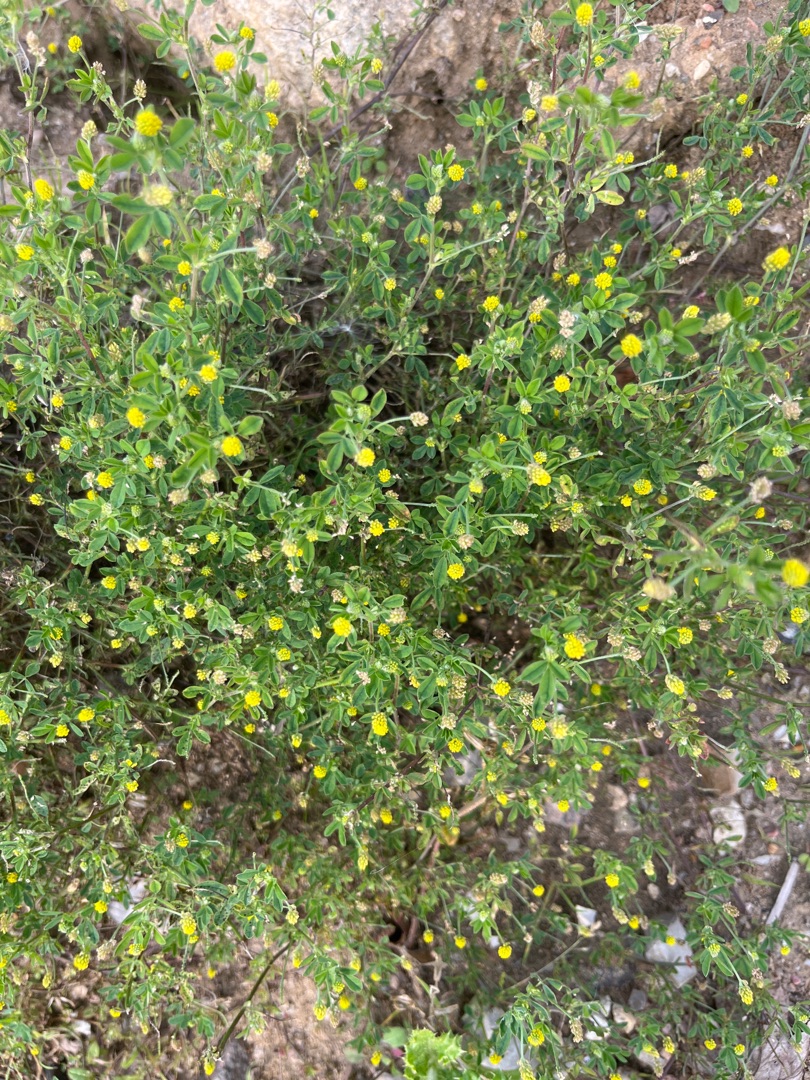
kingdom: Plantae
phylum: Tracheophyta
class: Magnoliopsida
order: Fabales
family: Fabaceae
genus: Medicago
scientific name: Medicago lupulina
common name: Humle-sneglebælg
